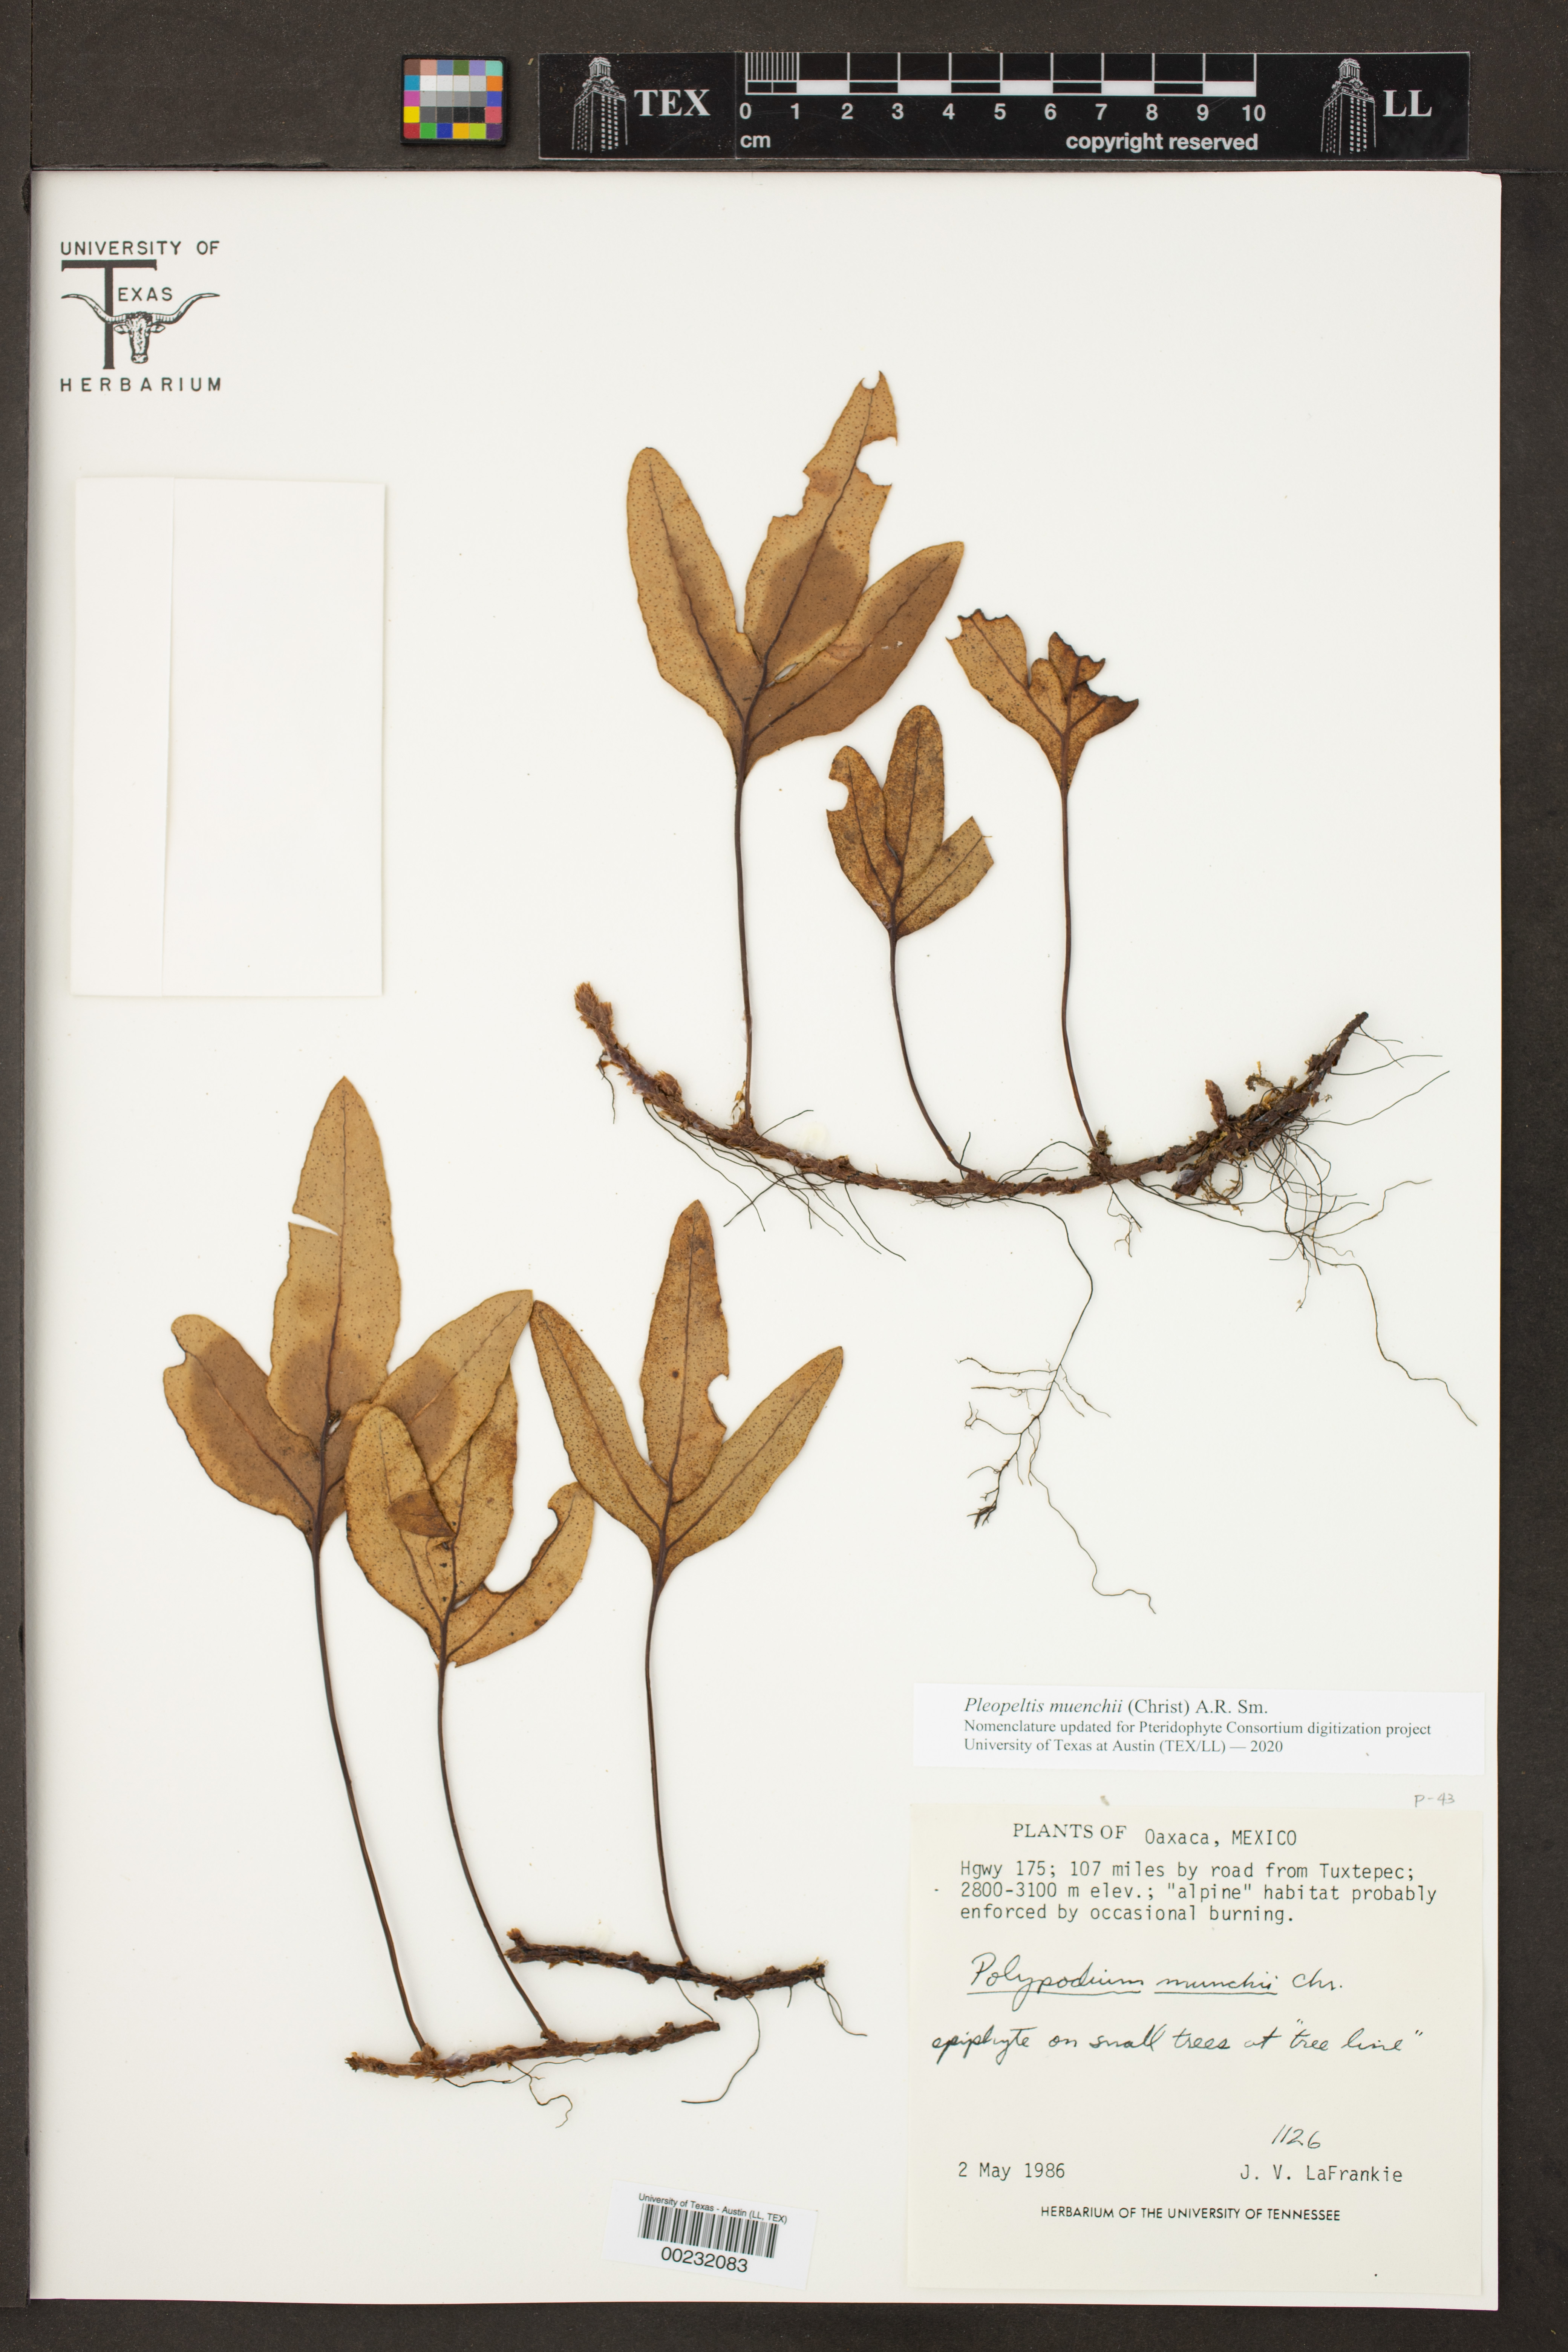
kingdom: Plantae
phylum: Tracheophyta
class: Polypodiopsida
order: Polypodiales
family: Polypodiaceae
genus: Pleopeltis
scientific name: Pleopeltis muenchii
